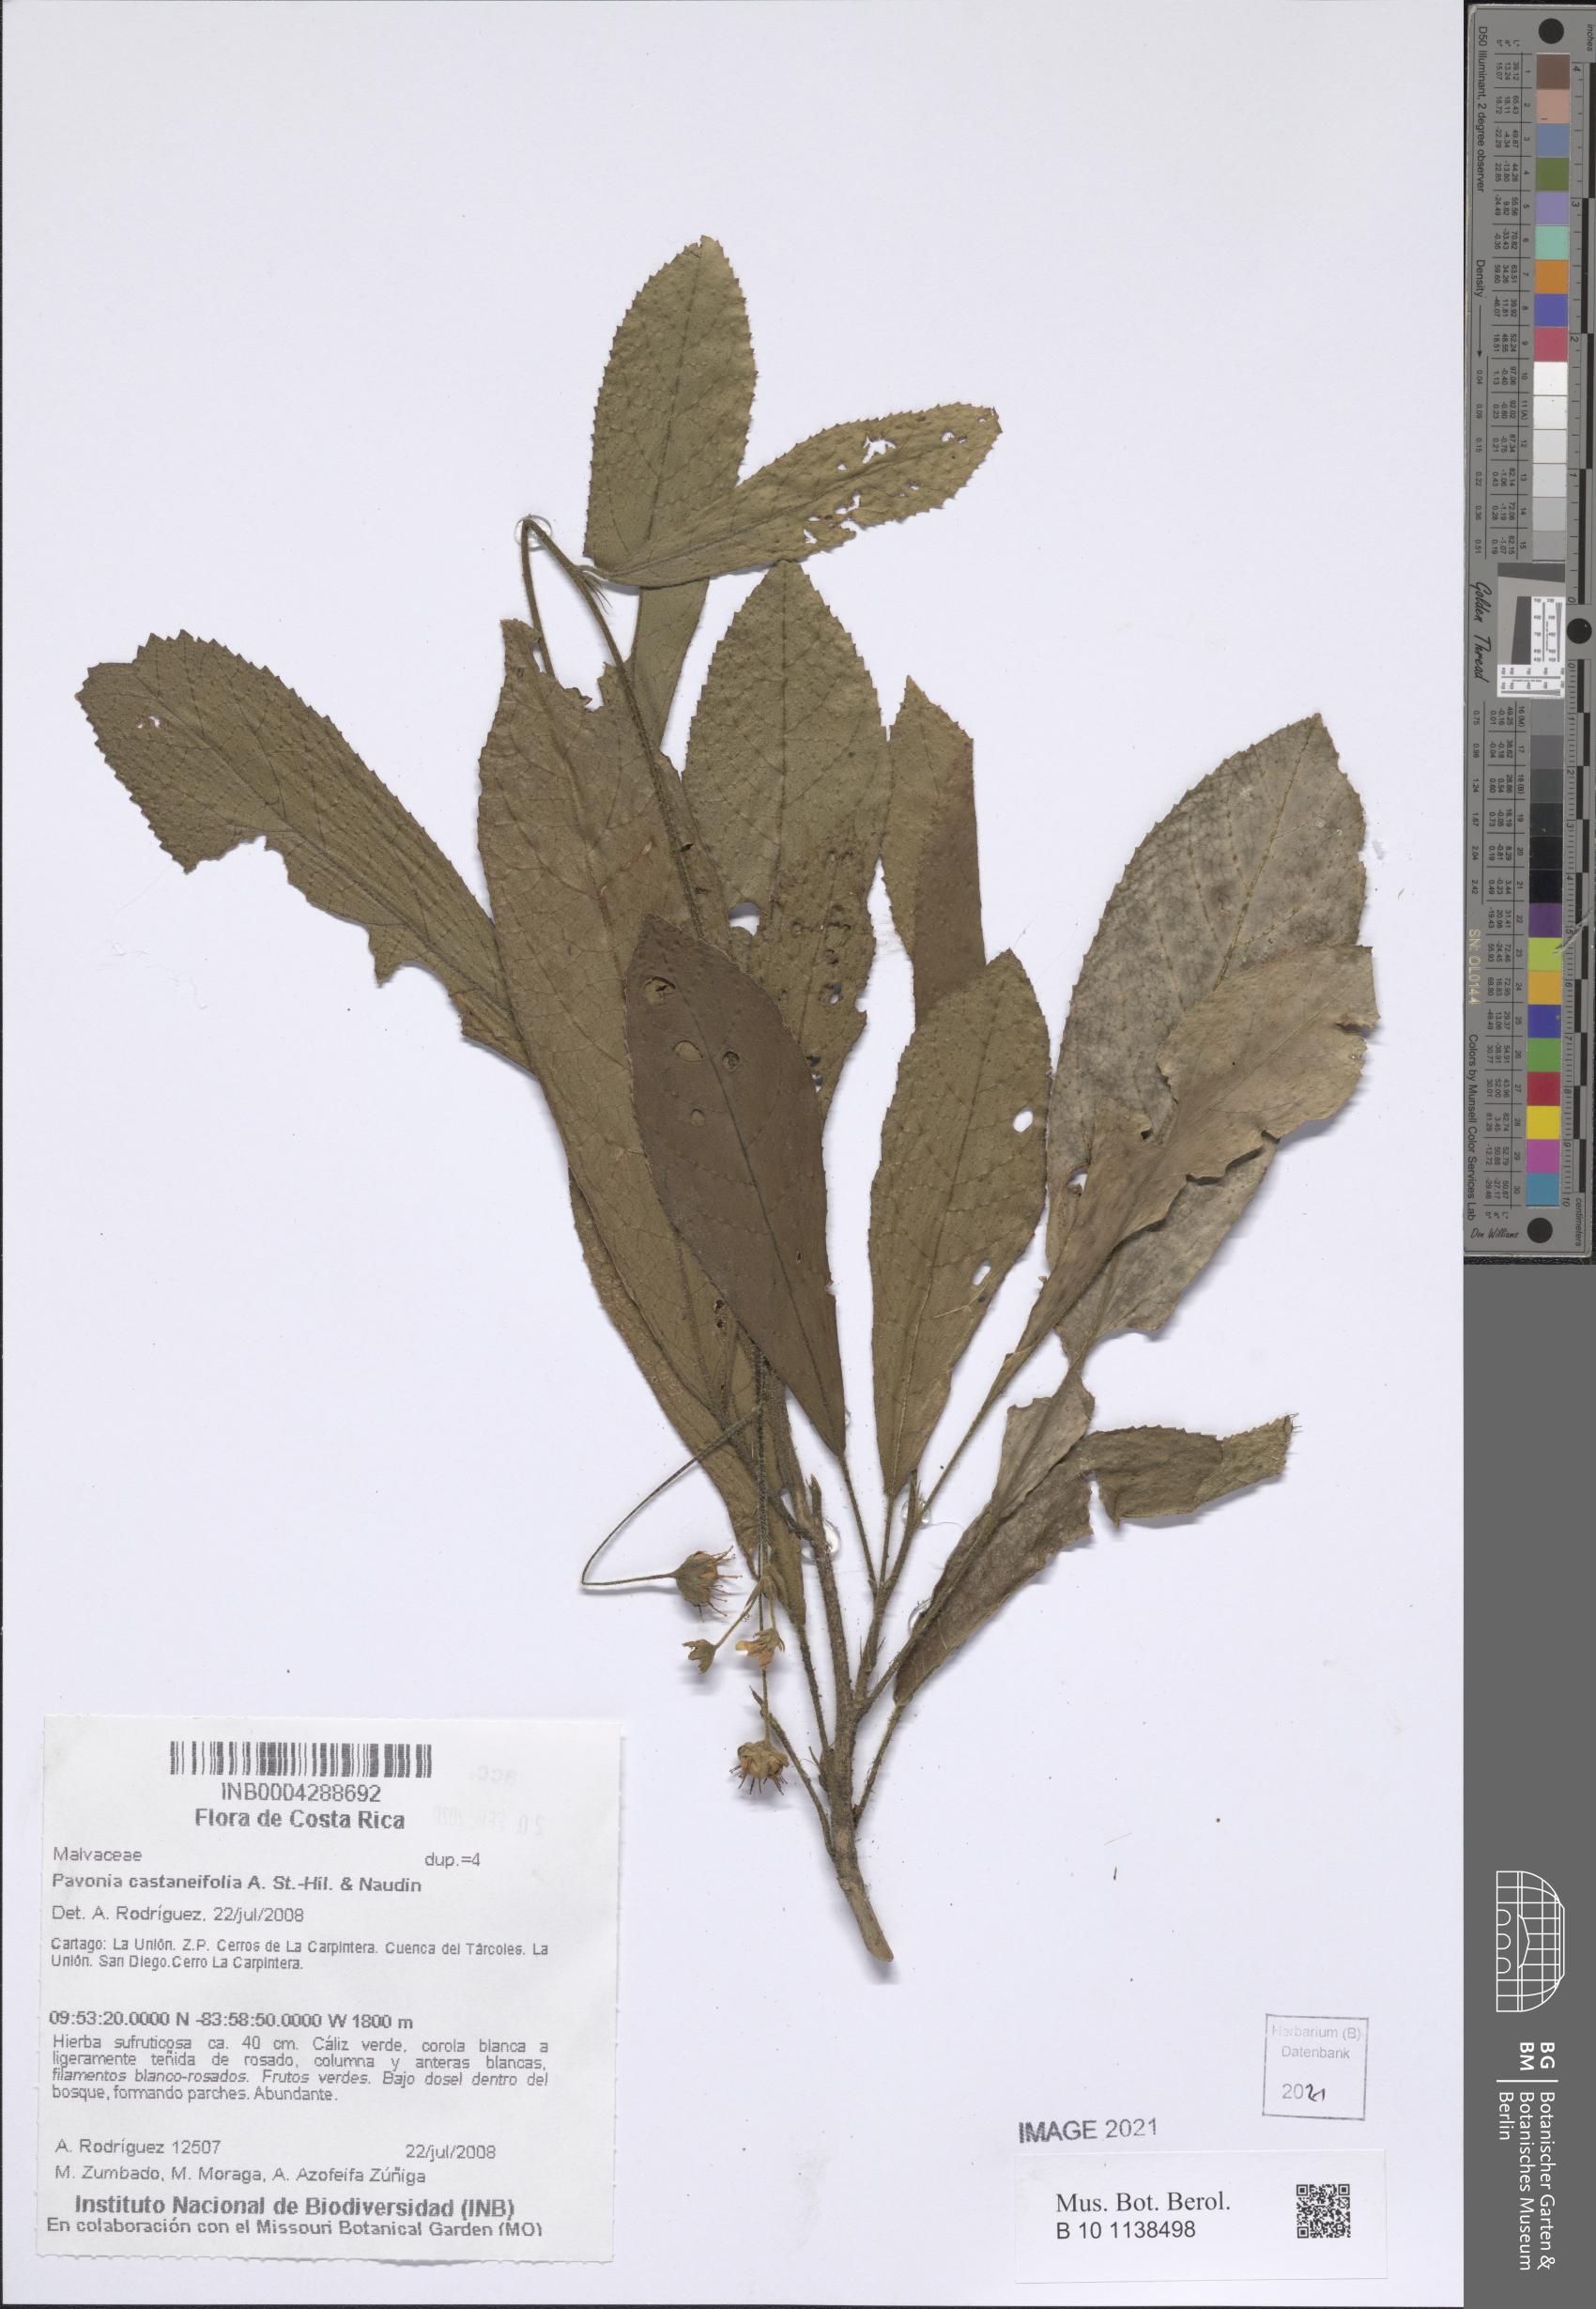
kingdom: Plantae
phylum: Tracheophyta
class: Magnoliopsida
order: Malvales
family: Malvaceae
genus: Pavonia
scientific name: Pavonia castaneifolia
